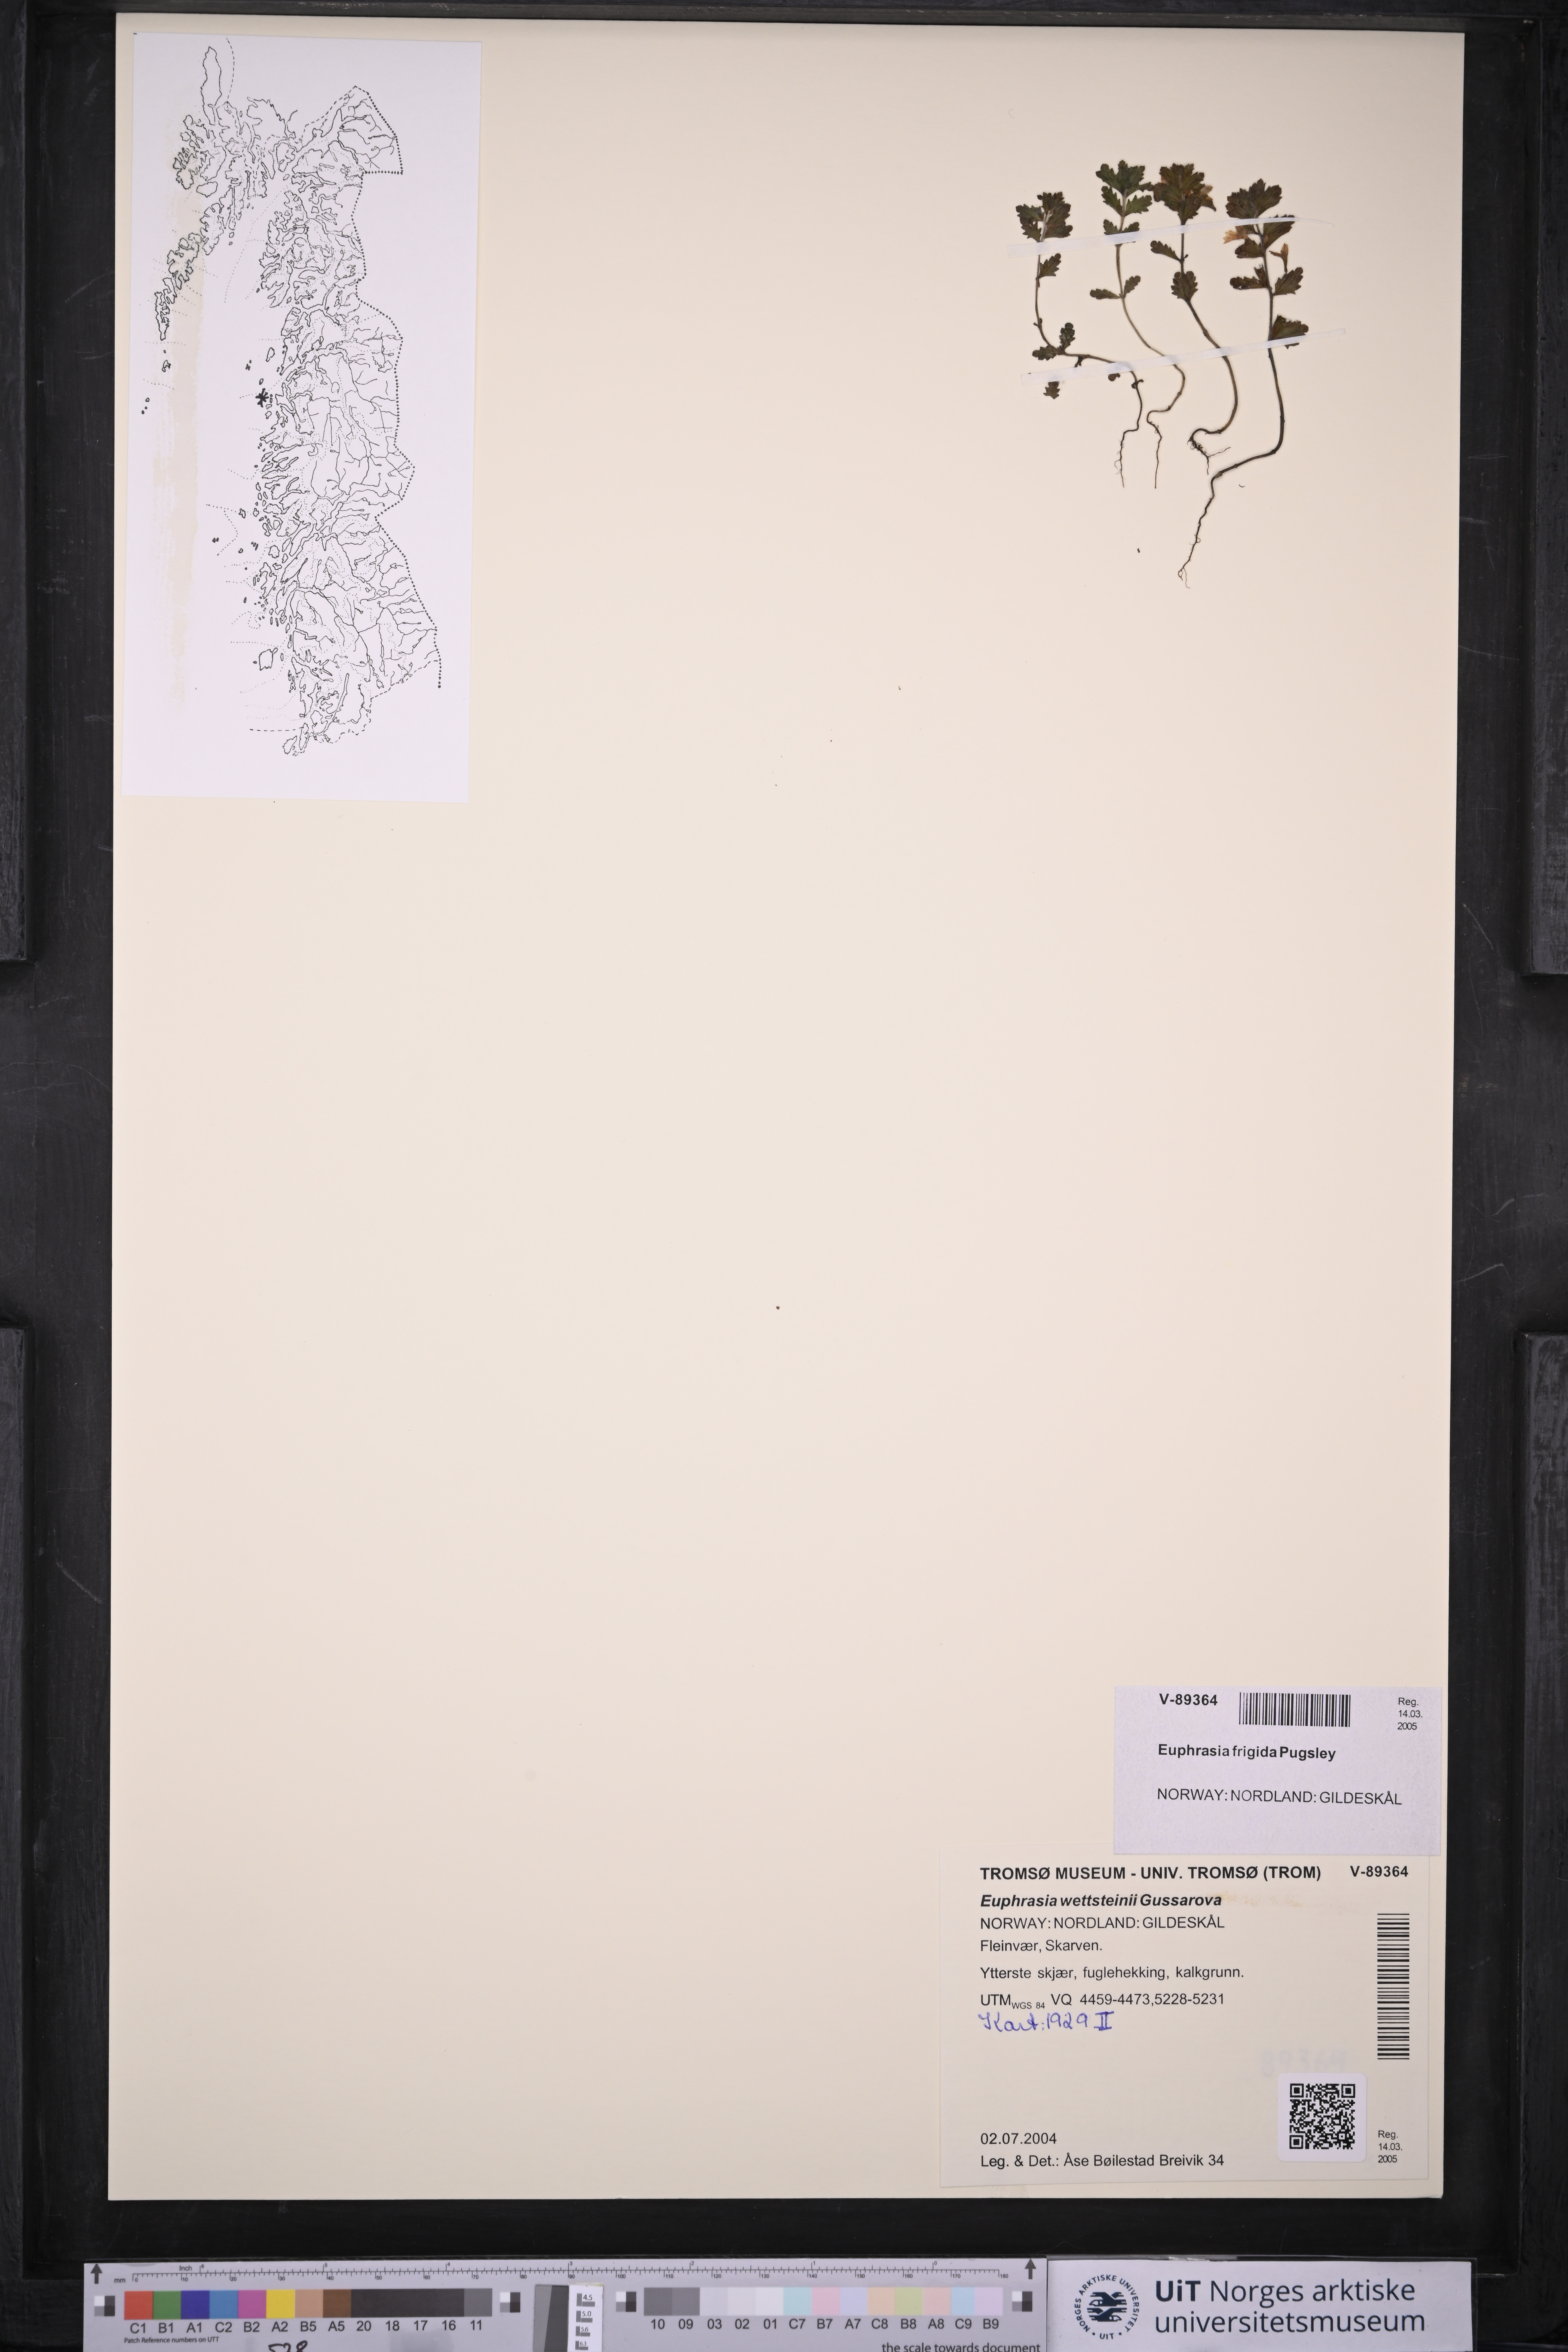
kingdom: Plantae
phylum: Tracheophyta
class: Magnoliopsida
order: Lamiales
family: Orobanchaceae
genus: Euphrasia
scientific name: Euphrasia wettsteinii
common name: Wettstein's eyebright
